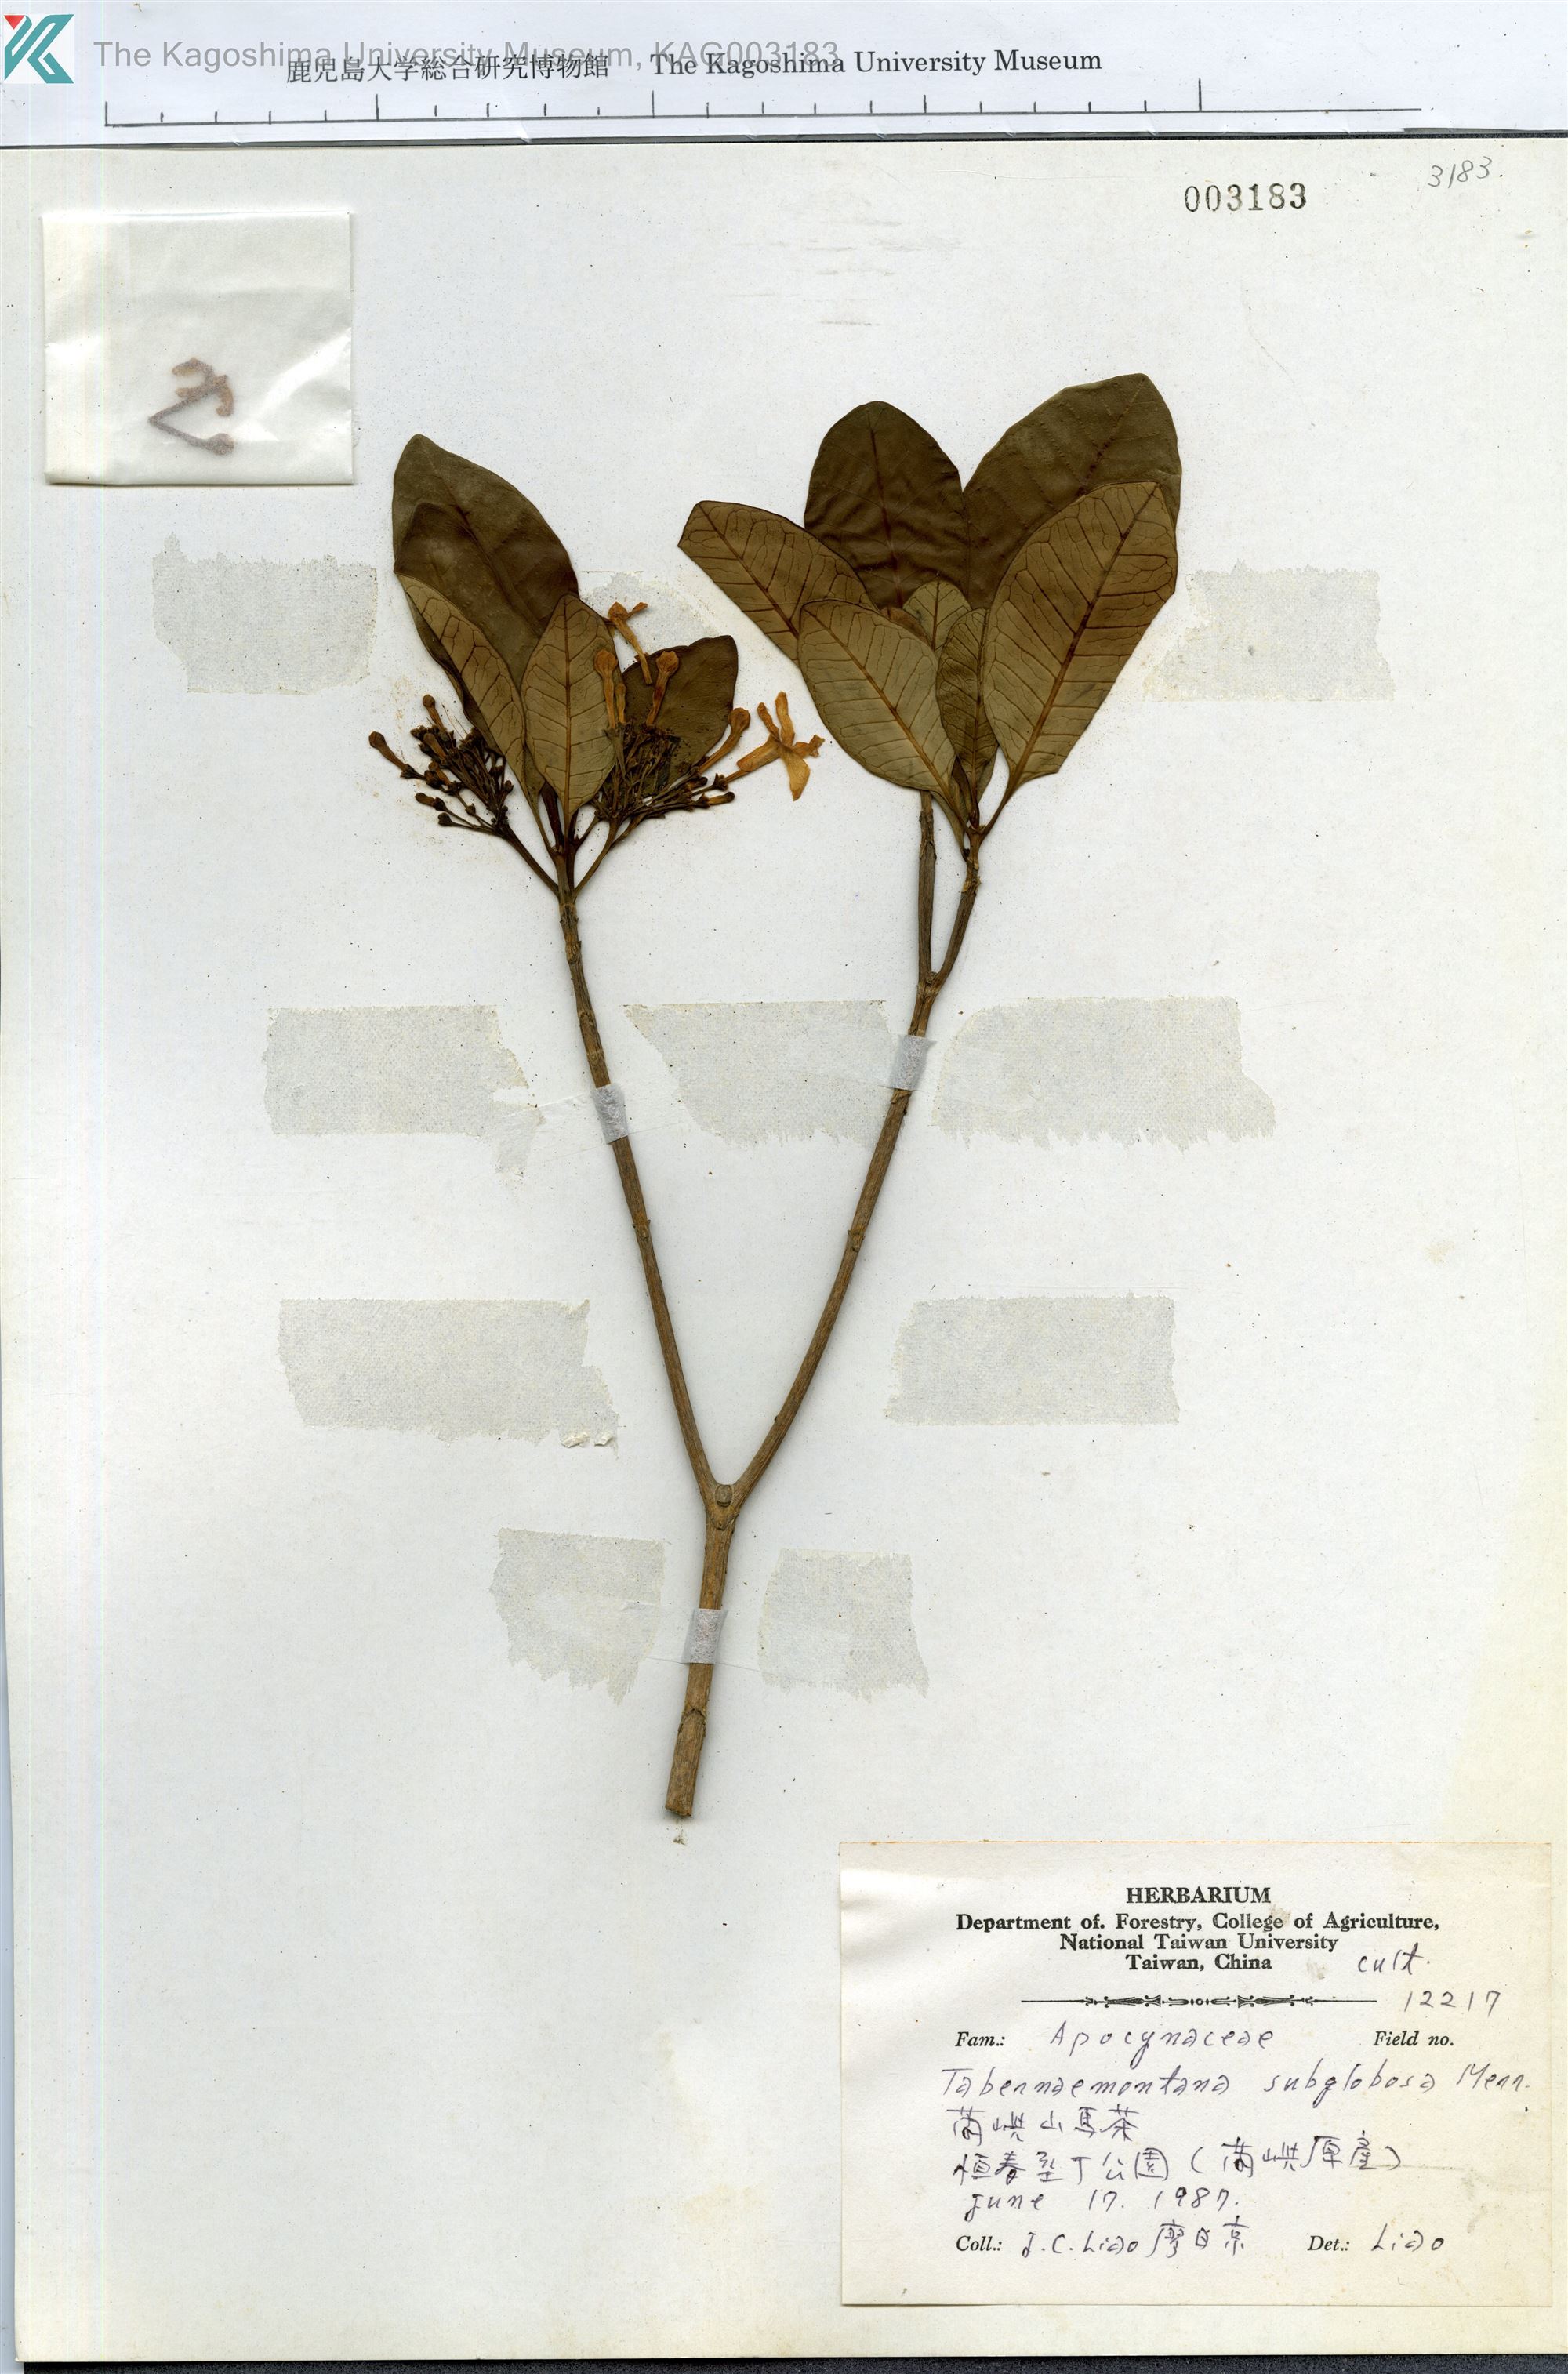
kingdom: Plantae
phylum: Tracheophyta
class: Magnoliopsida
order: Gentianales
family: Apocynaceae
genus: Tabernaemontana
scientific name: Tabernaemontana pandacaqui
